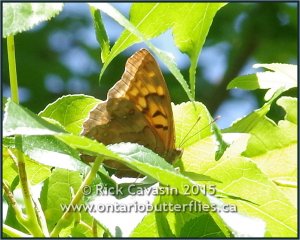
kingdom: Animalia
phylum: Arthropoda
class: Insecta
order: Lepidoptera
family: Nymphalidae
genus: Asterocampa
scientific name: Asterocampa clyton
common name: Tawny Emperor
